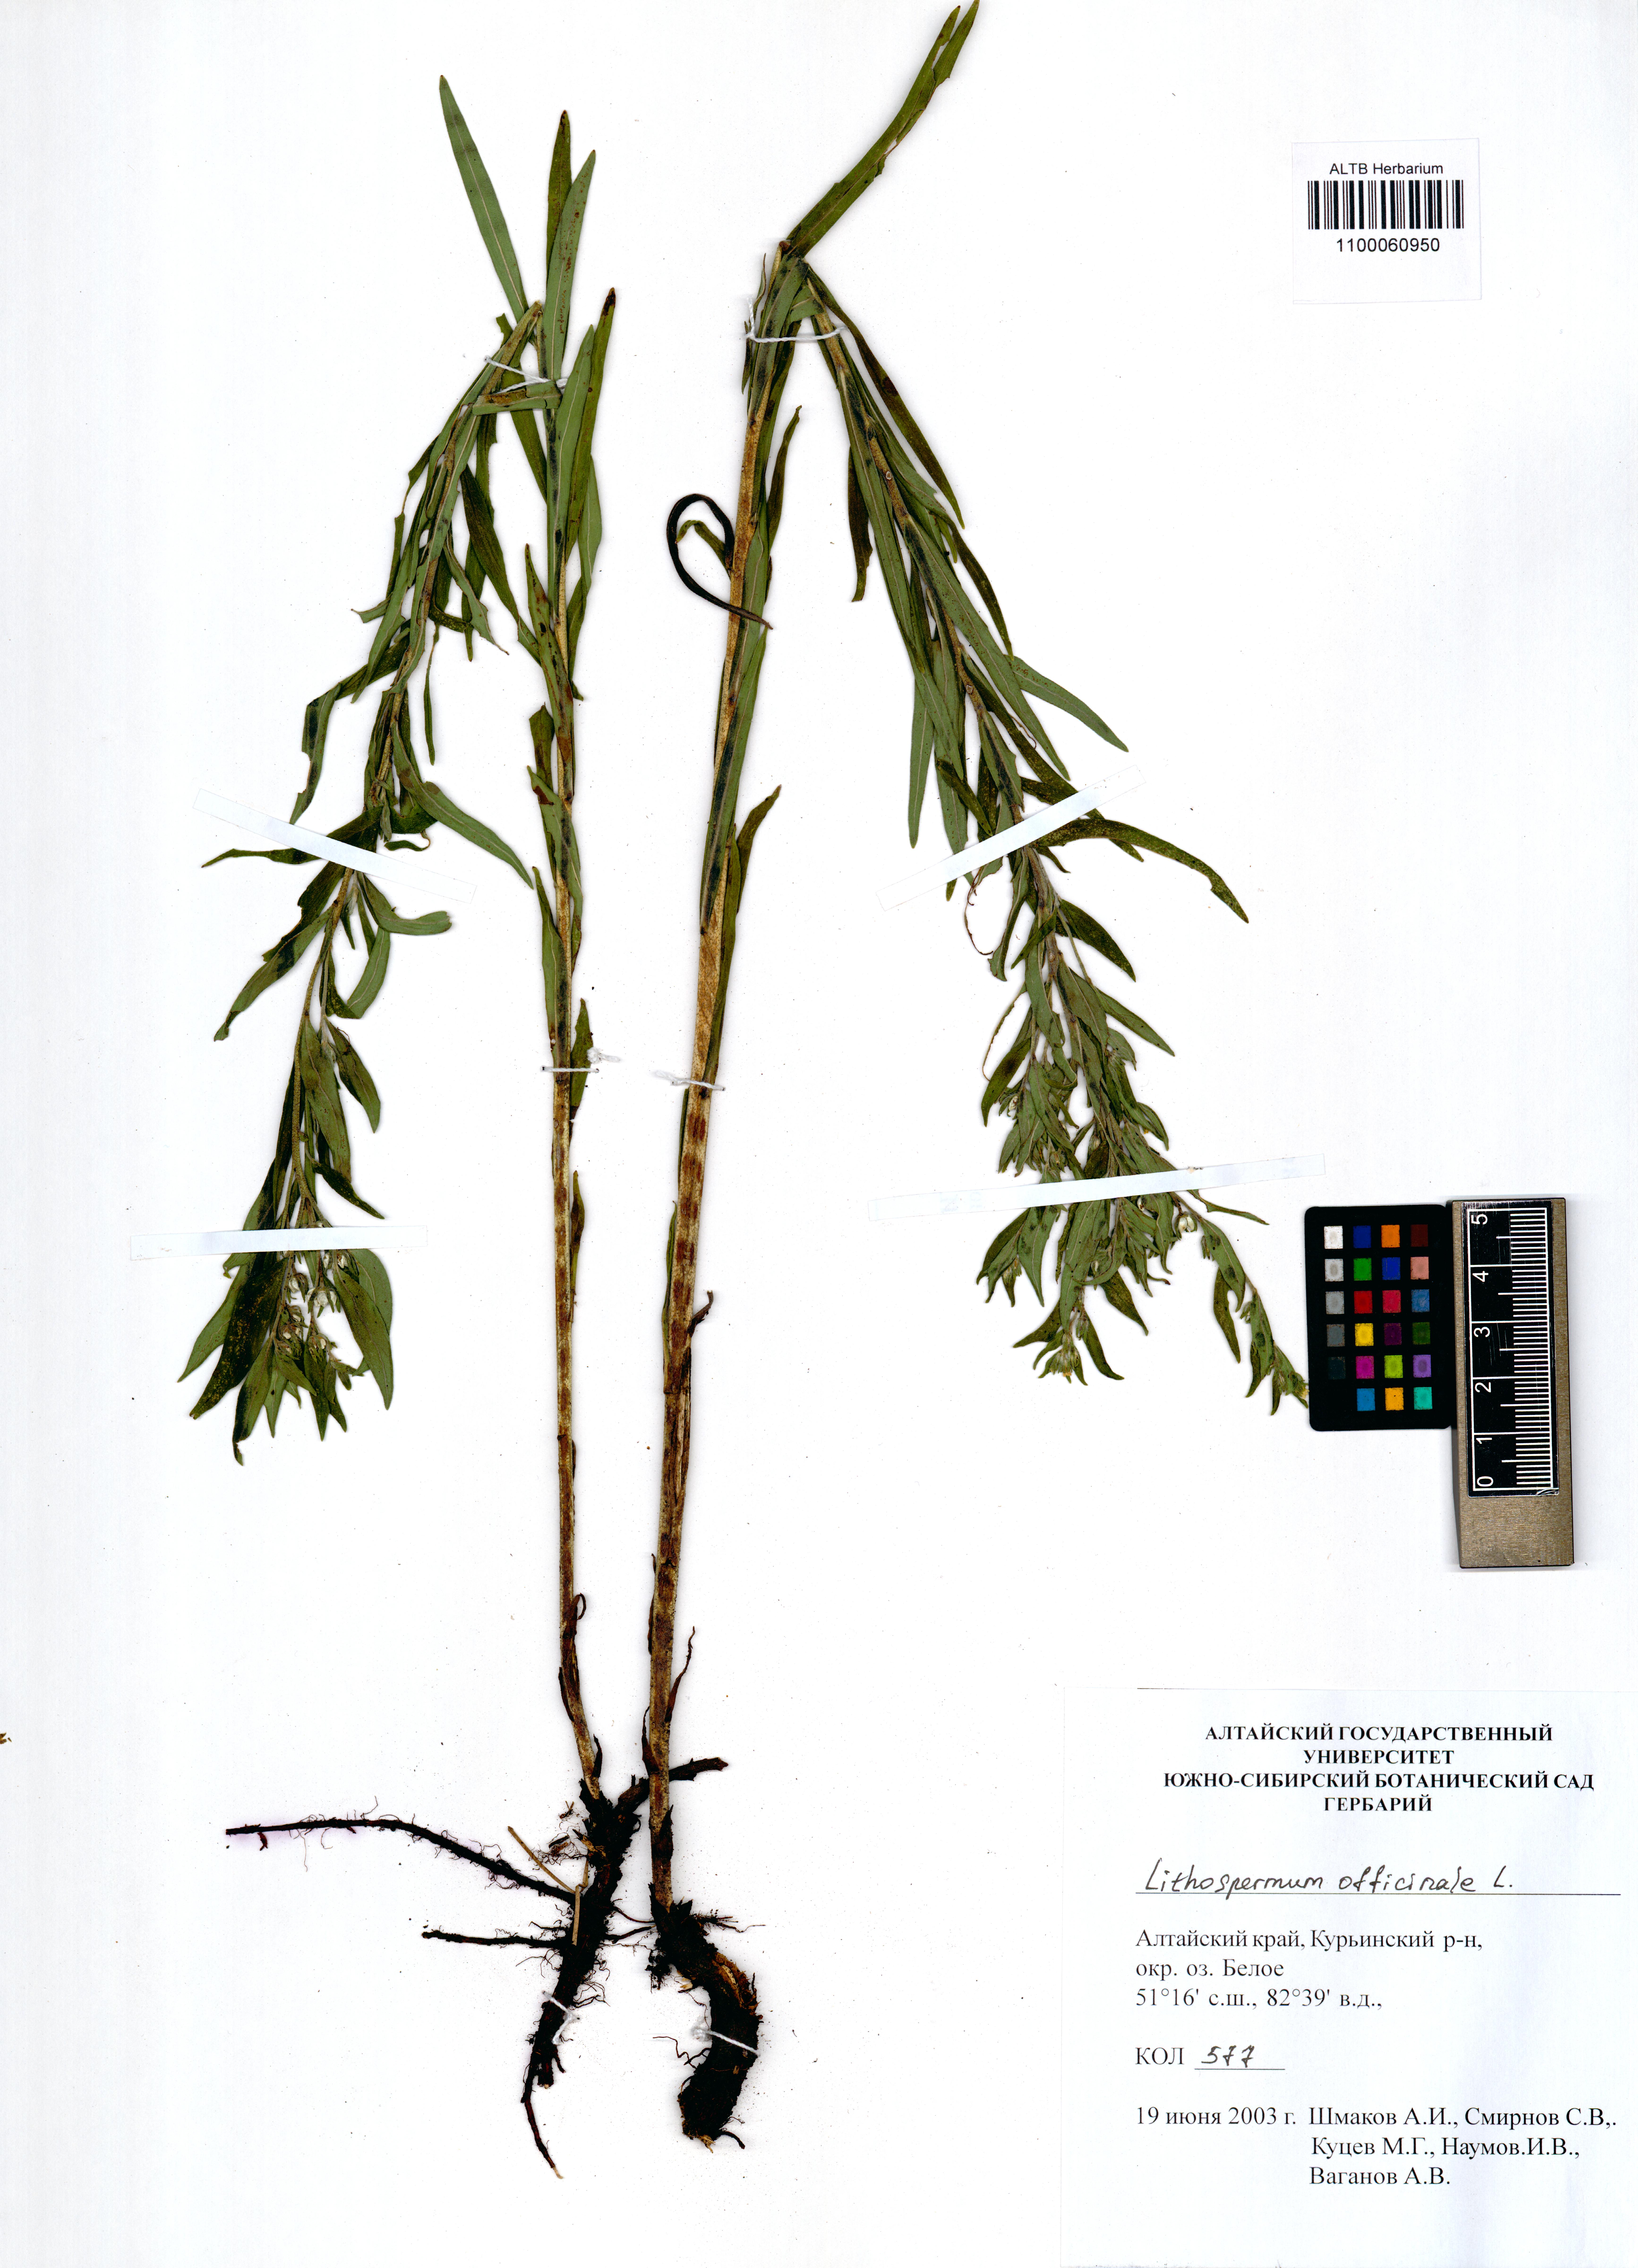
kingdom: Plantae
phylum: Tracheophyta
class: Magnoliopsida
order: Boraginales
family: Boraginaceae
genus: Lithospermum
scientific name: Lithospermum officinale
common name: Common gromwell
